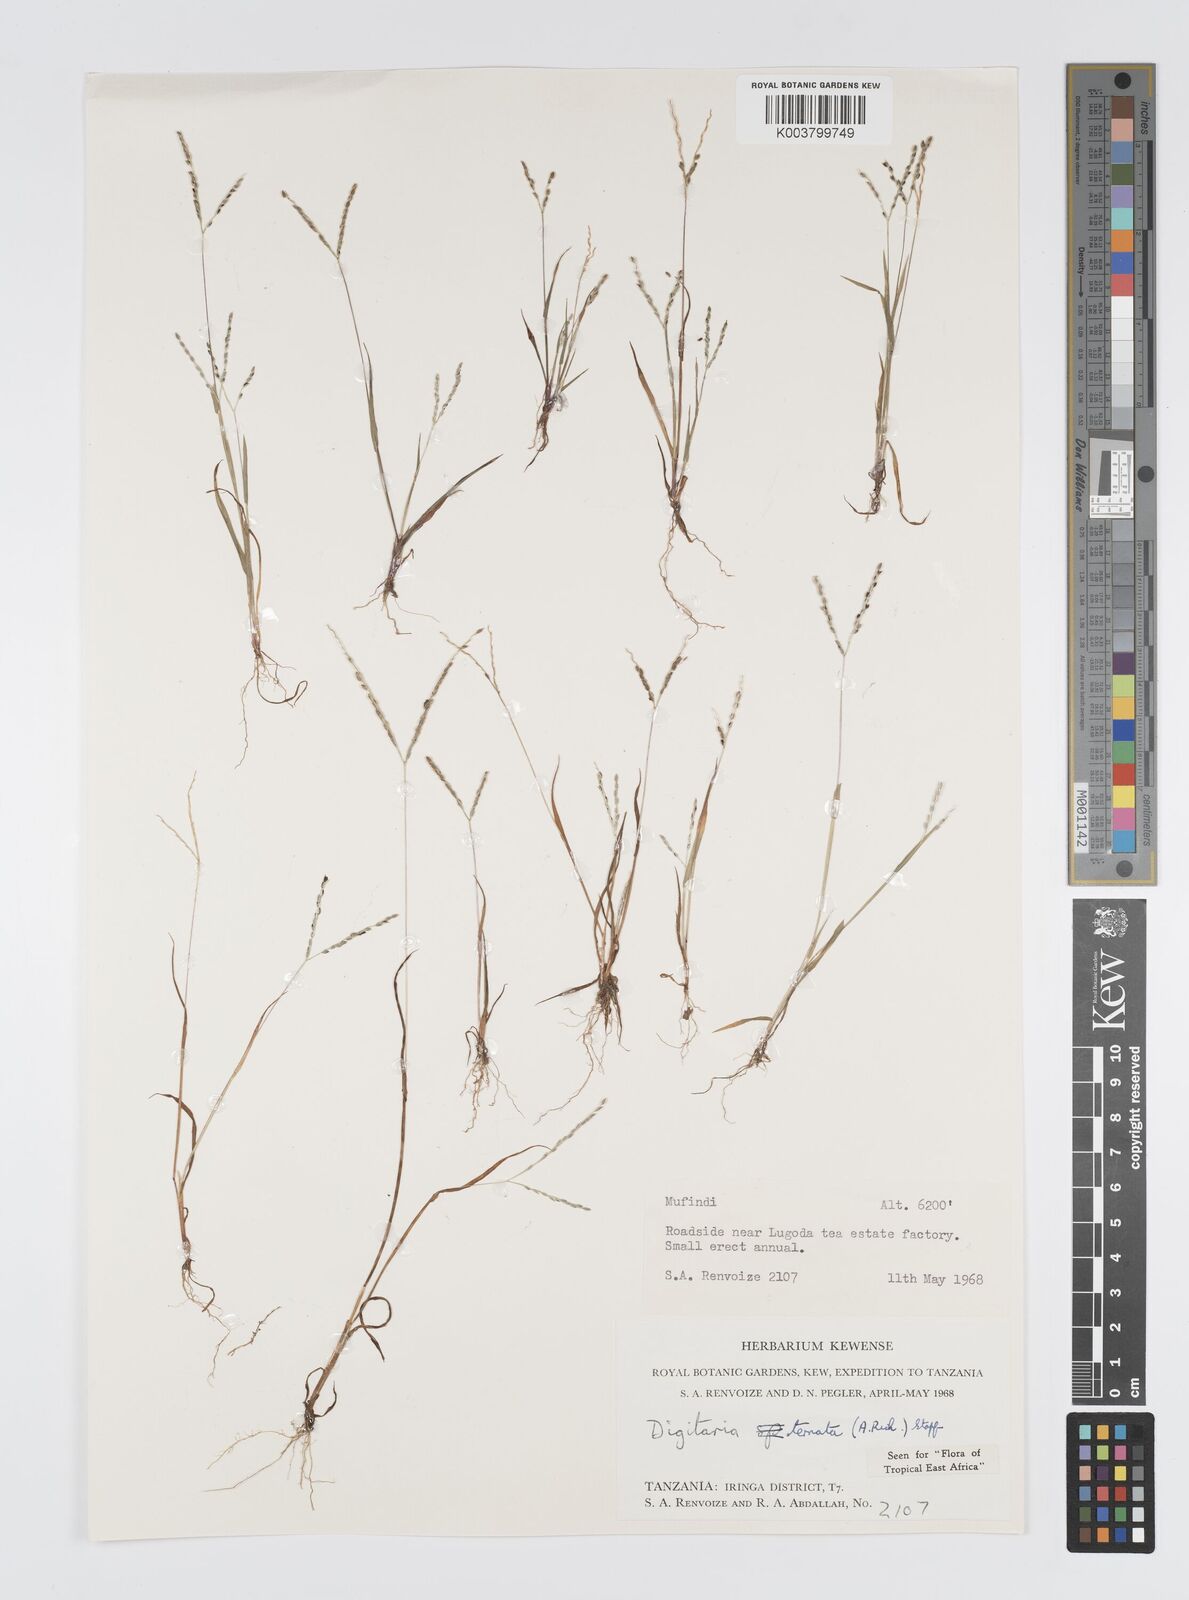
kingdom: Plantae
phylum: Tracheophyta
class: Liliopsida
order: Poales
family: Poaceae
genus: Digitaria
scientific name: Digitaria ternata
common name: Blackseed crabgrass
